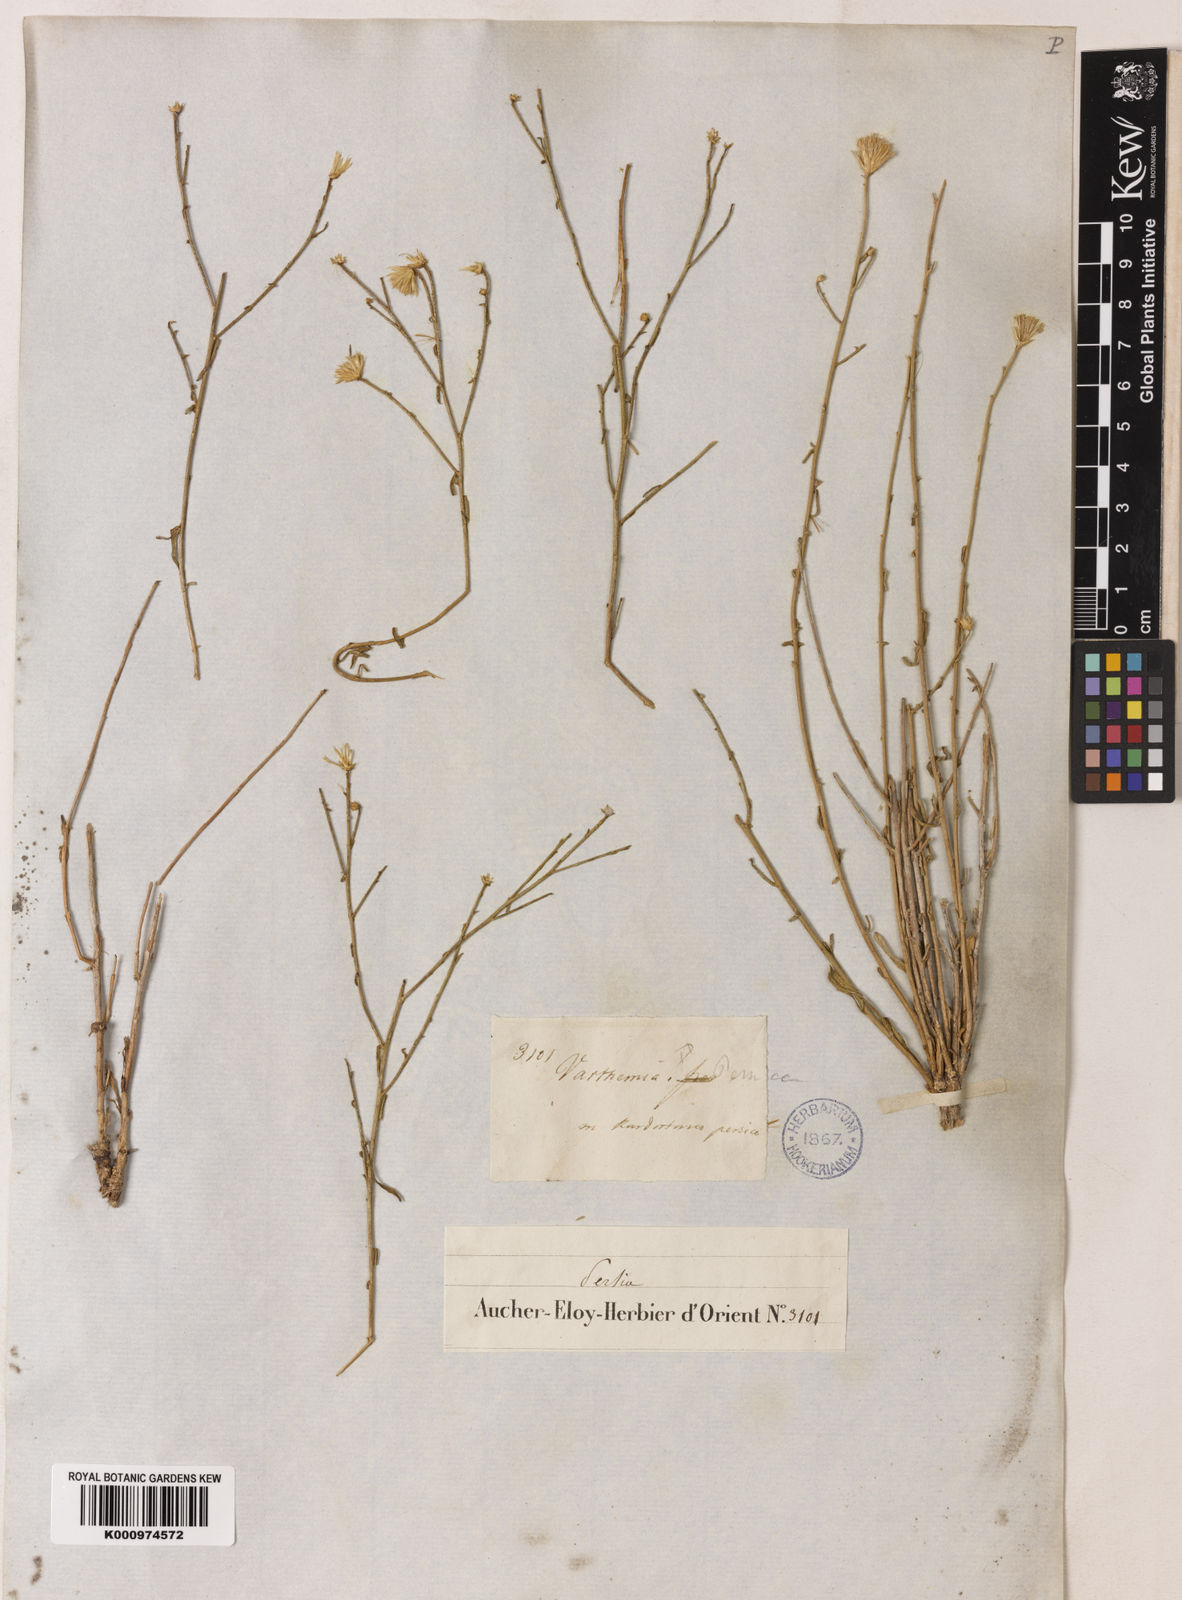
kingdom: Plantae
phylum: Tracheophyta
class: Magnoliopsida
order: Asterales
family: Asteraceae
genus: Pentanema
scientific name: Pentanema persicum
